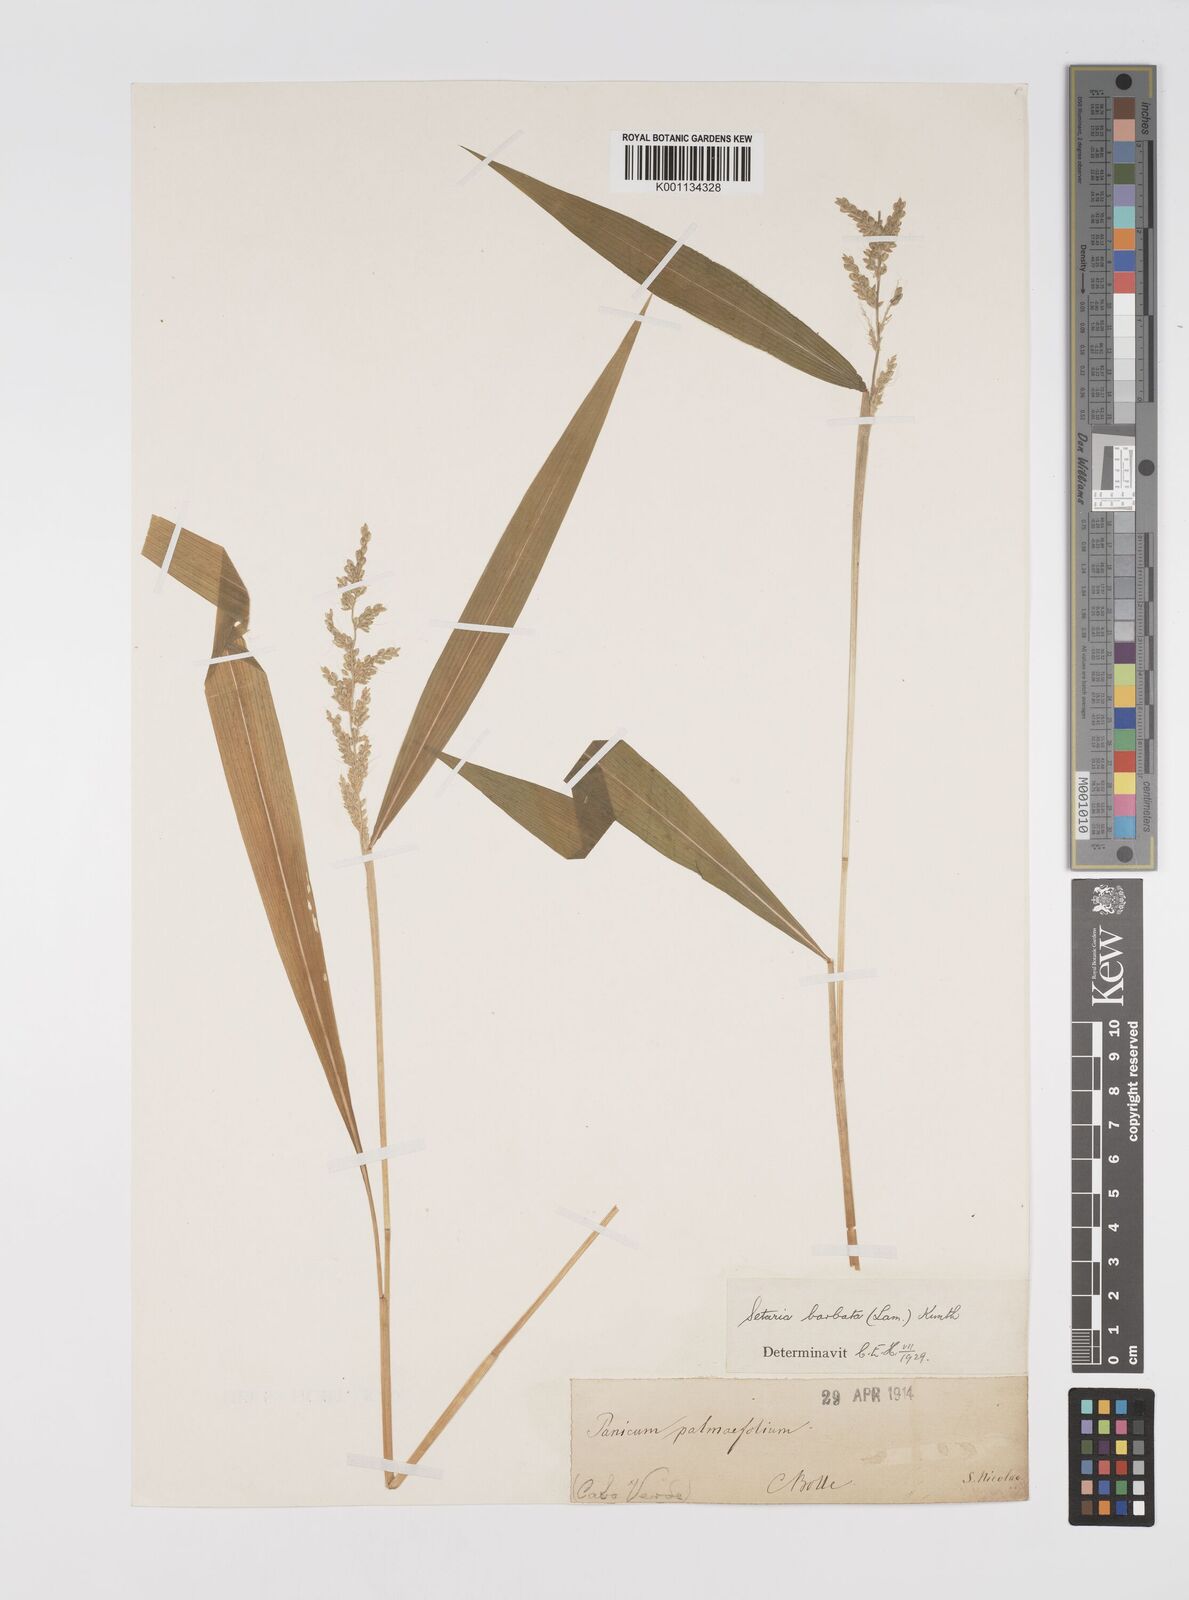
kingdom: Plantae
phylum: Tracheophyta
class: Liliopsida
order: Poales
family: Poaceae
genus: Setaria
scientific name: Setaria barbata
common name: East indian bristlegrass
